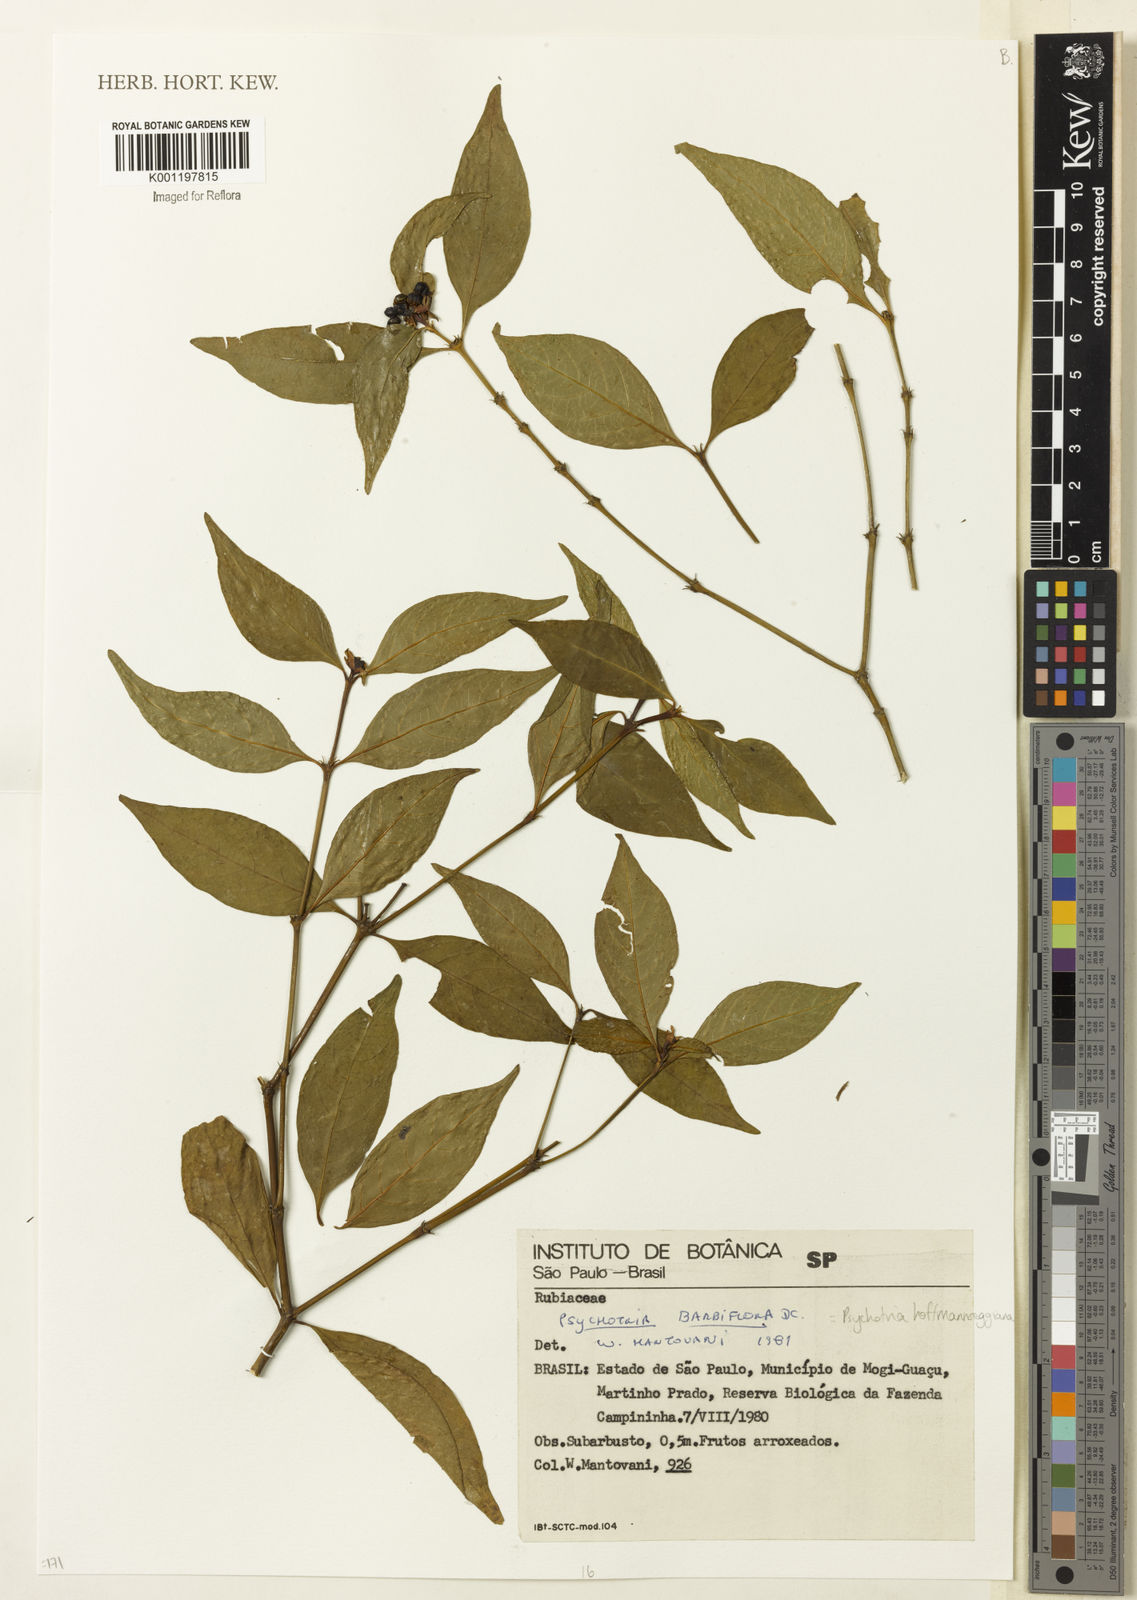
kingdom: Plantae
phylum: Tracheophyta
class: Magnoliopsida
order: Gentianales
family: Rubiaceae
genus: Psychotria
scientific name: Psychotria
